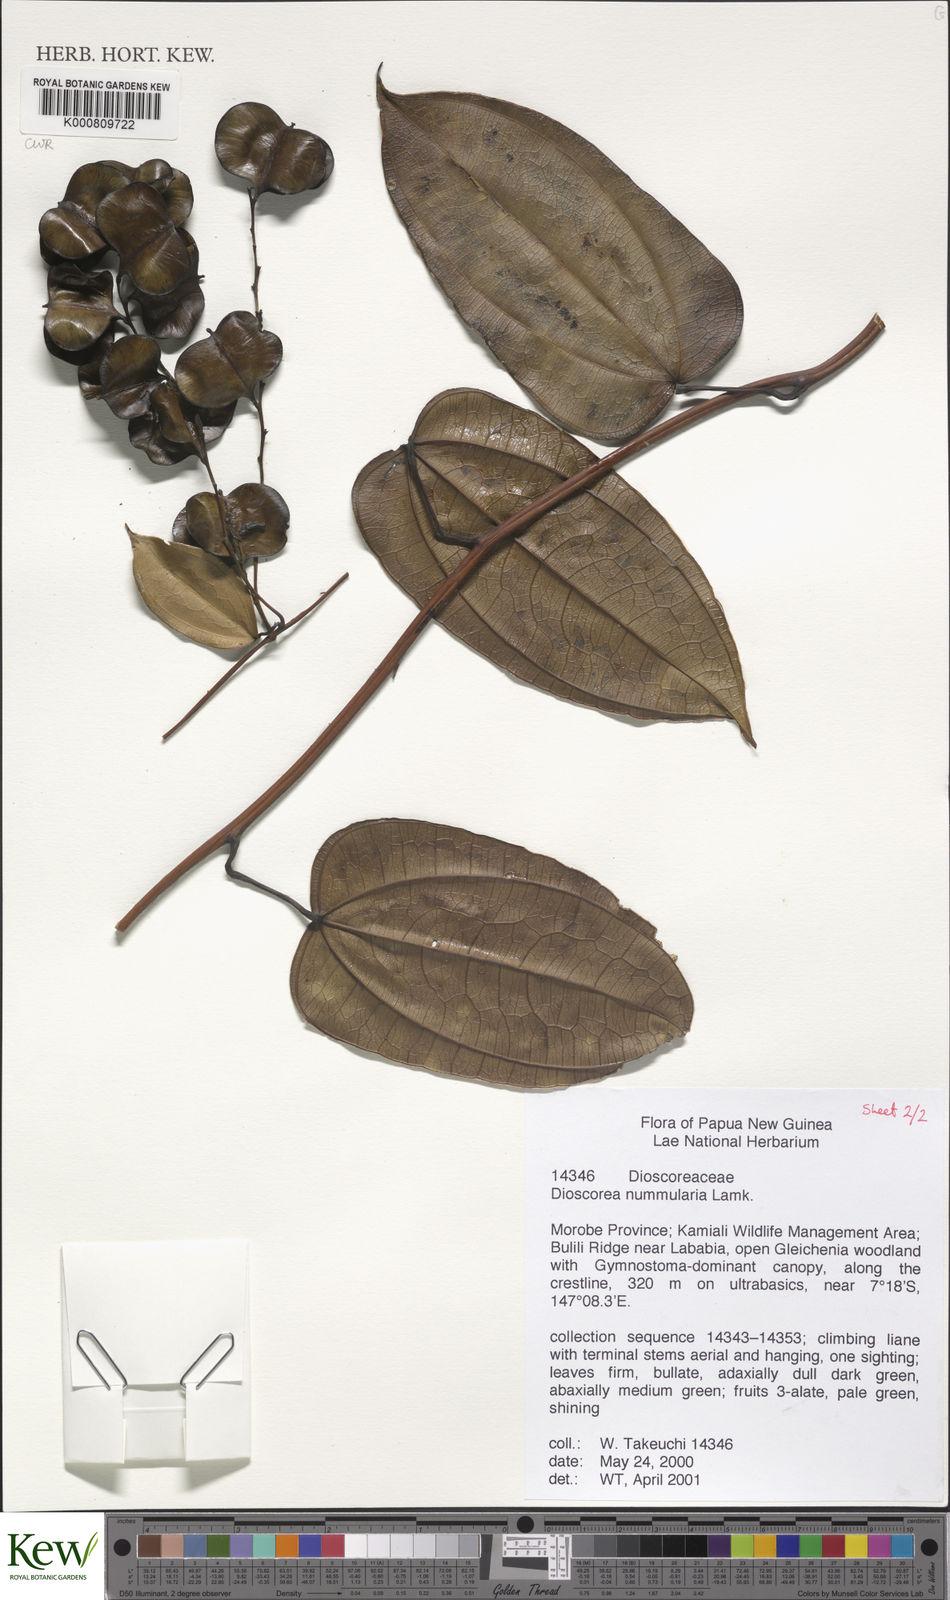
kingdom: Plantae
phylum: Tracheophyta
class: Liliopsida
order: Dioscoreales
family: Dioscoreaceae
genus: Dioscorea
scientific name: Dioscorea nummularia
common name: Pacific yam
